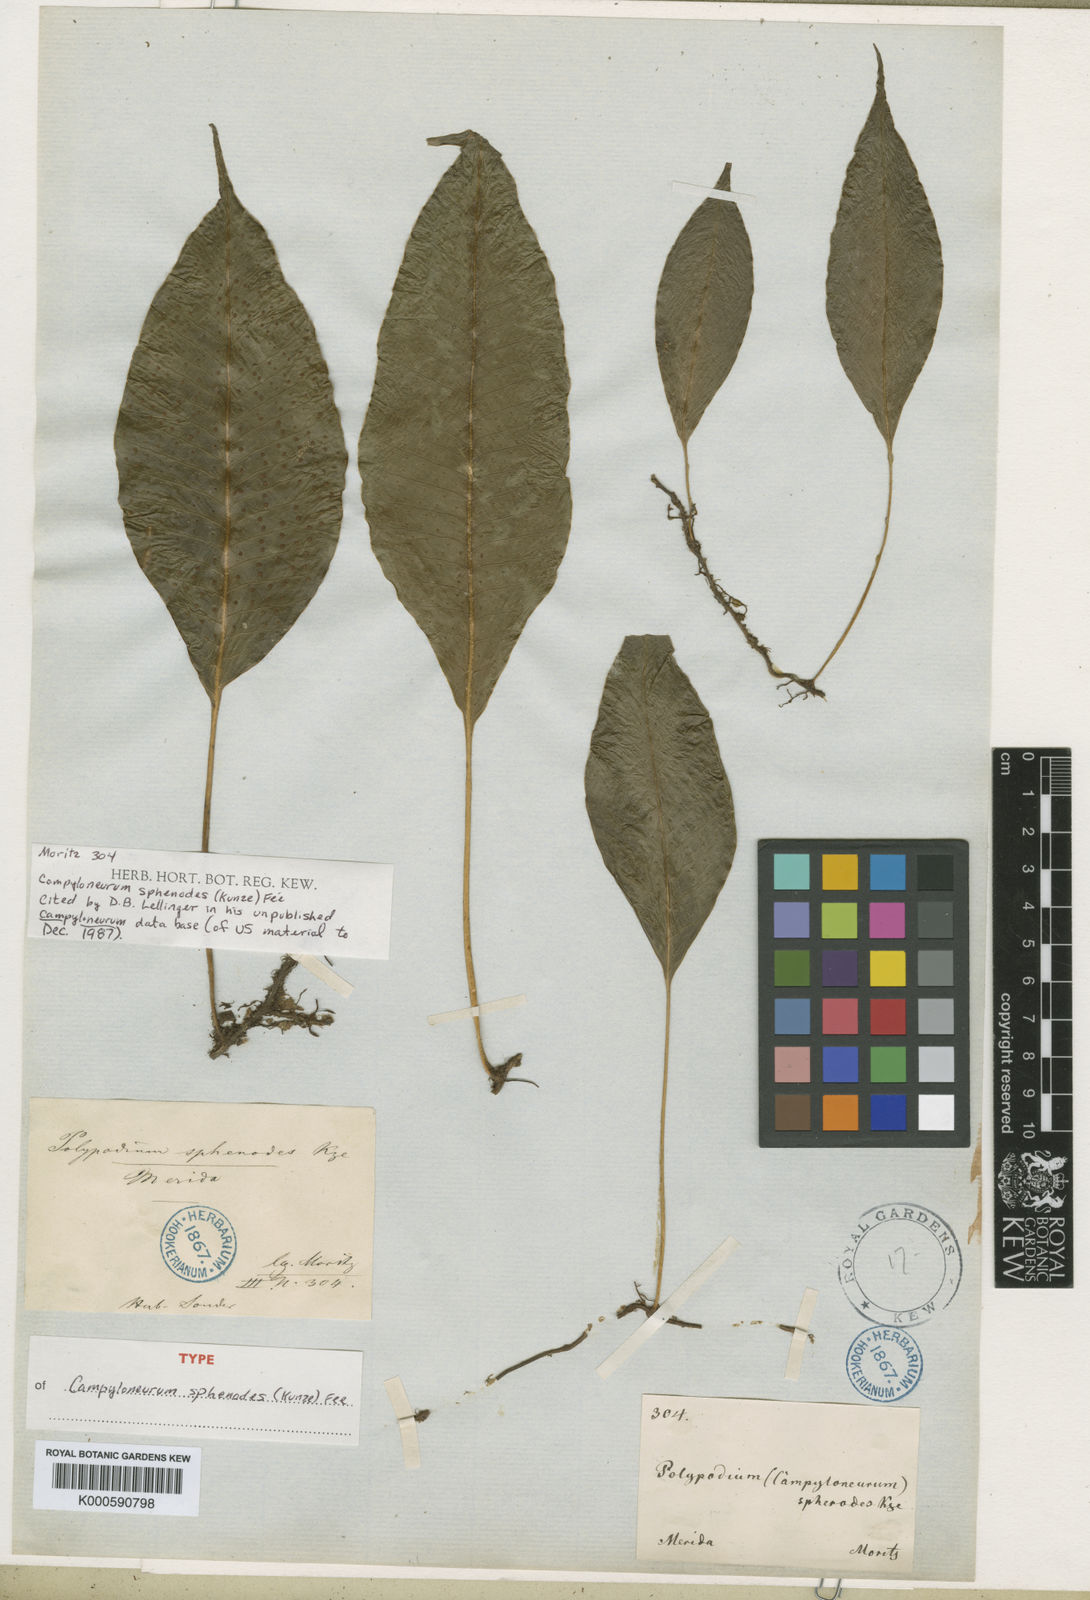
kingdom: Plantae
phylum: Tracheophyta
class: Polypodiopsida
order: Polypodiales
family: Polypodiaceae
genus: Campyloneurum
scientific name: Campyloneurum
